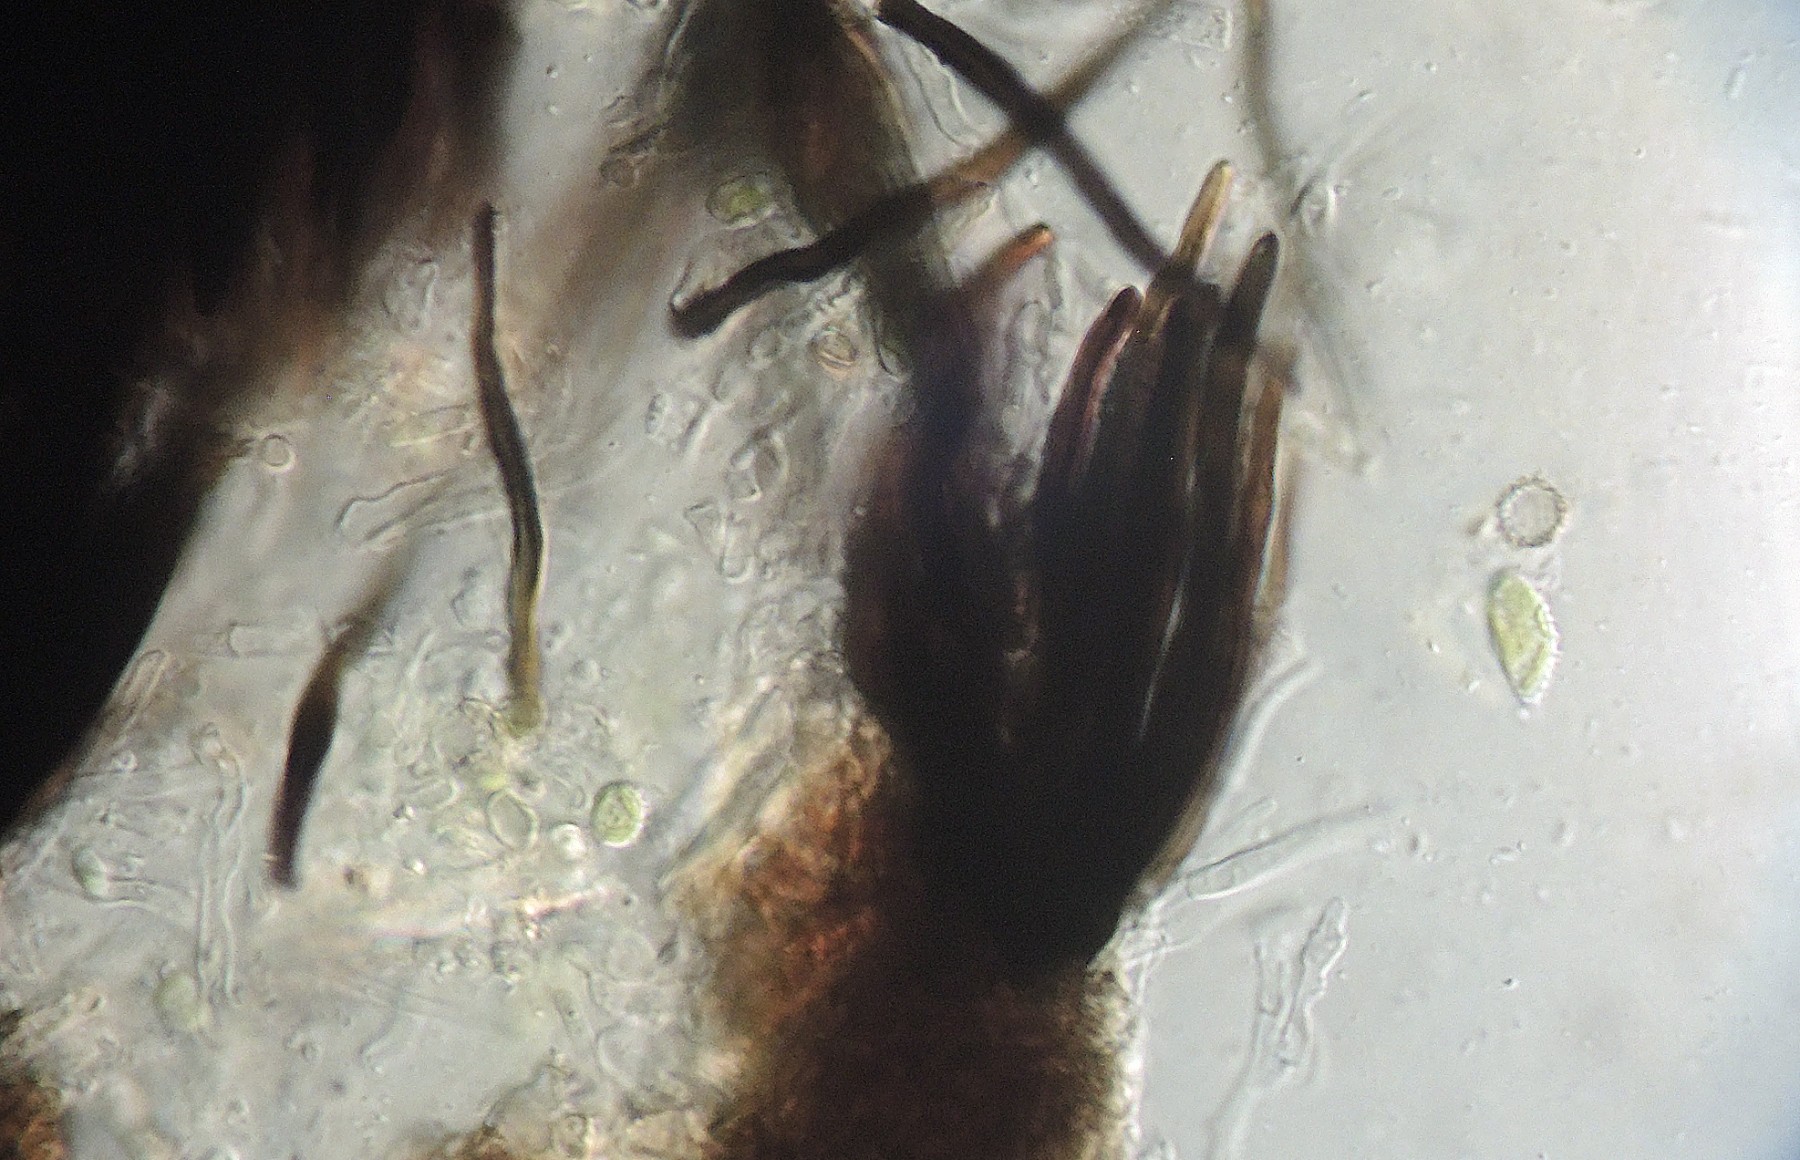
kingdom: Fungi
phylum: Ascomycota
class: Dothideomycetes
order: Pleosporales
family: Leptosphaeriaceae
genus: Leptosphaeria
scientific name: Leptosphaeria gloeospora
